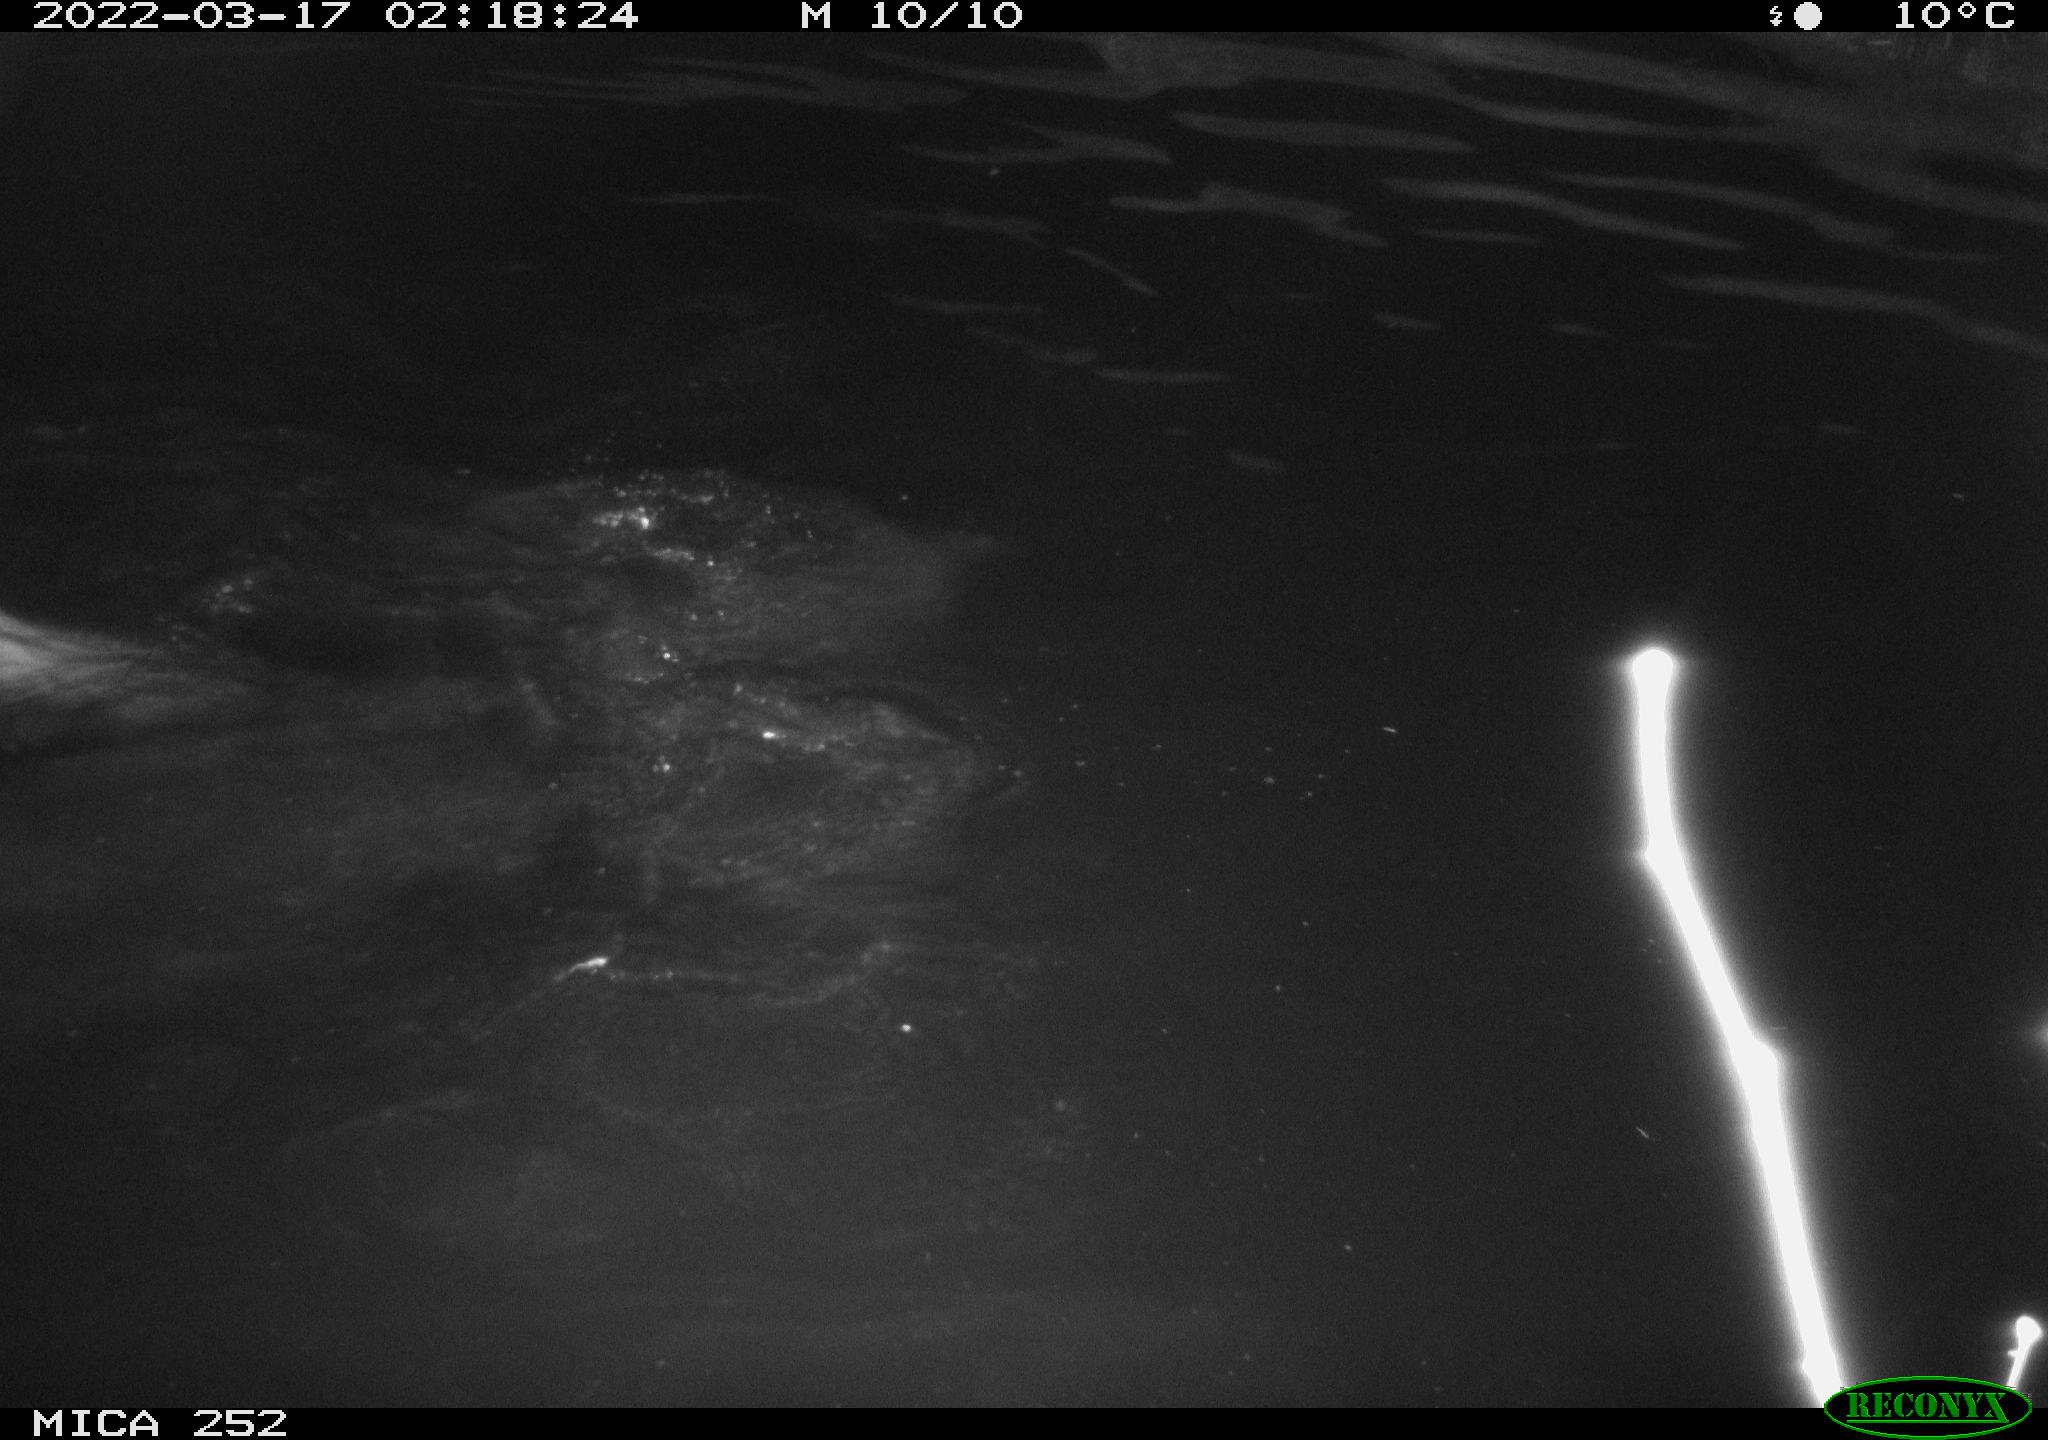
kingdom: Animalia
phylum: Chordata
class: Mammalia
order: Rodentia
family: Castoridae
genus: Castor
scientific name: Castor fiber
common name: Eurasian beaver
